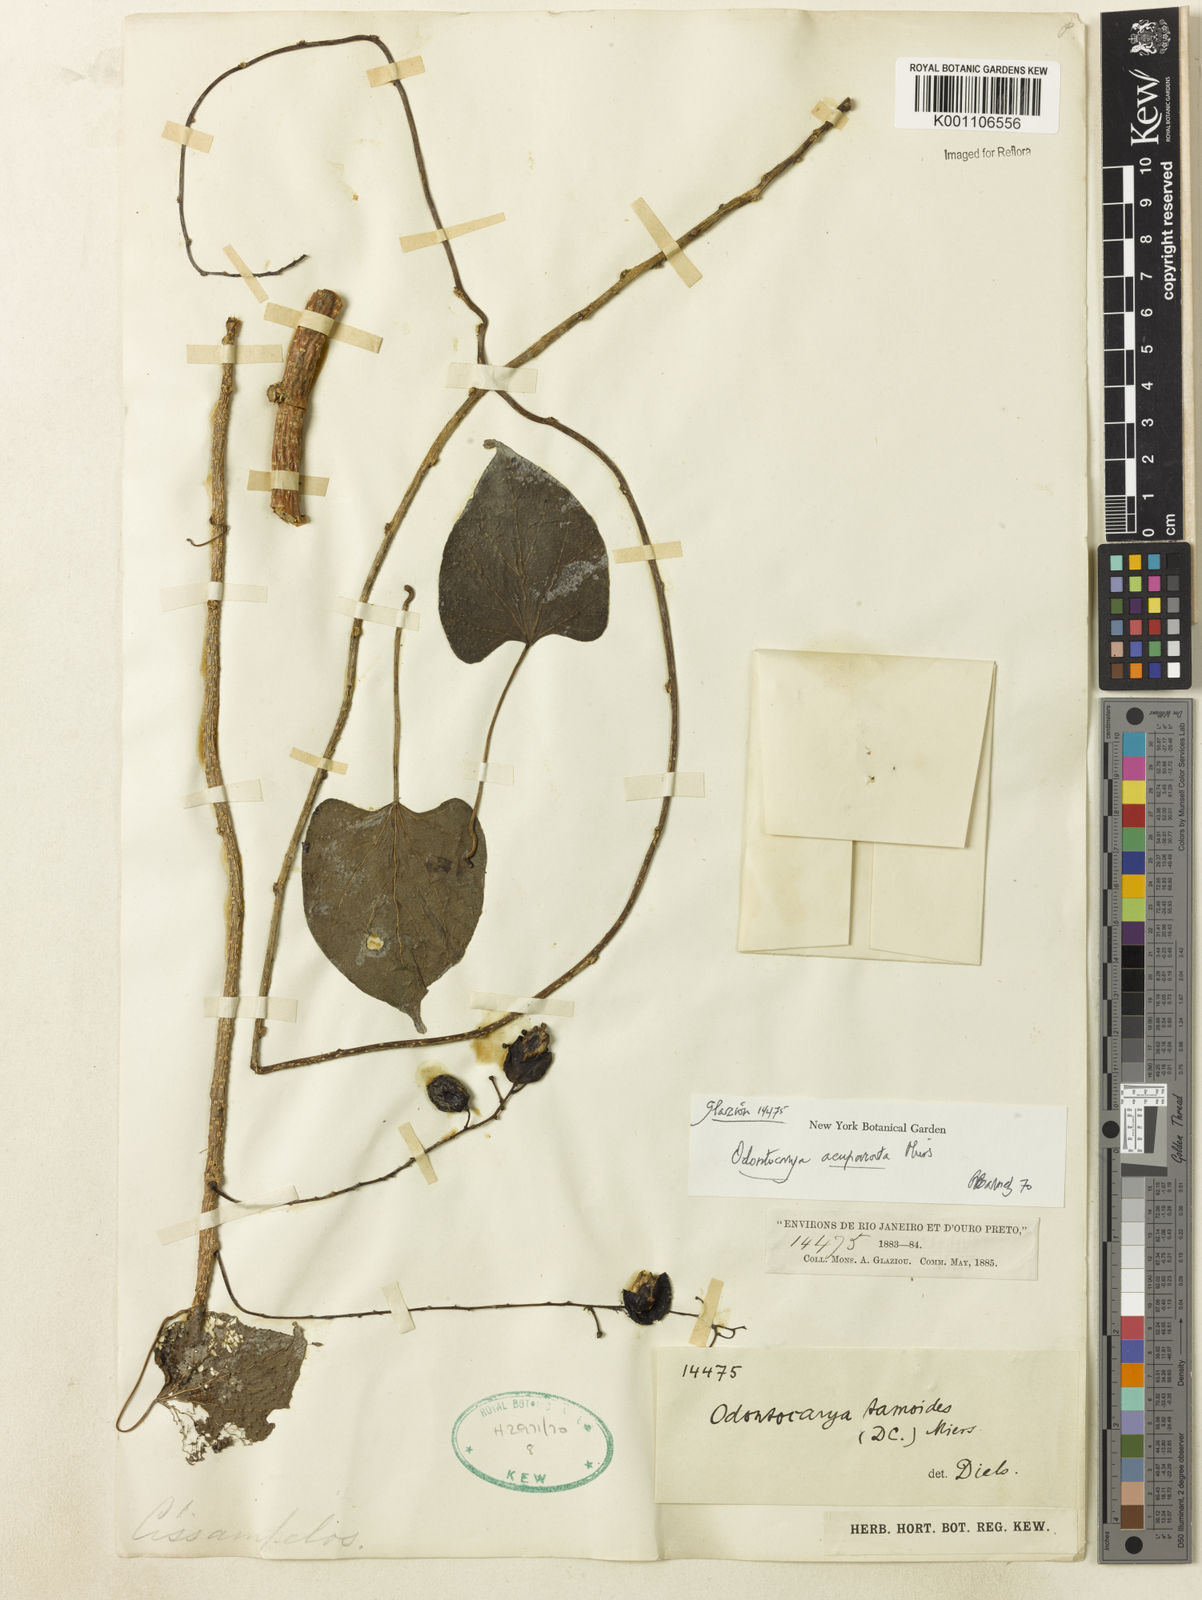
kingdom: Plantae
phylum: Tracheophyta
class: Magnoliopsida
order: Ranunculales
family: Menispermaceae
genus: Odontocarya
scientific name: Odontocarya acuparata
